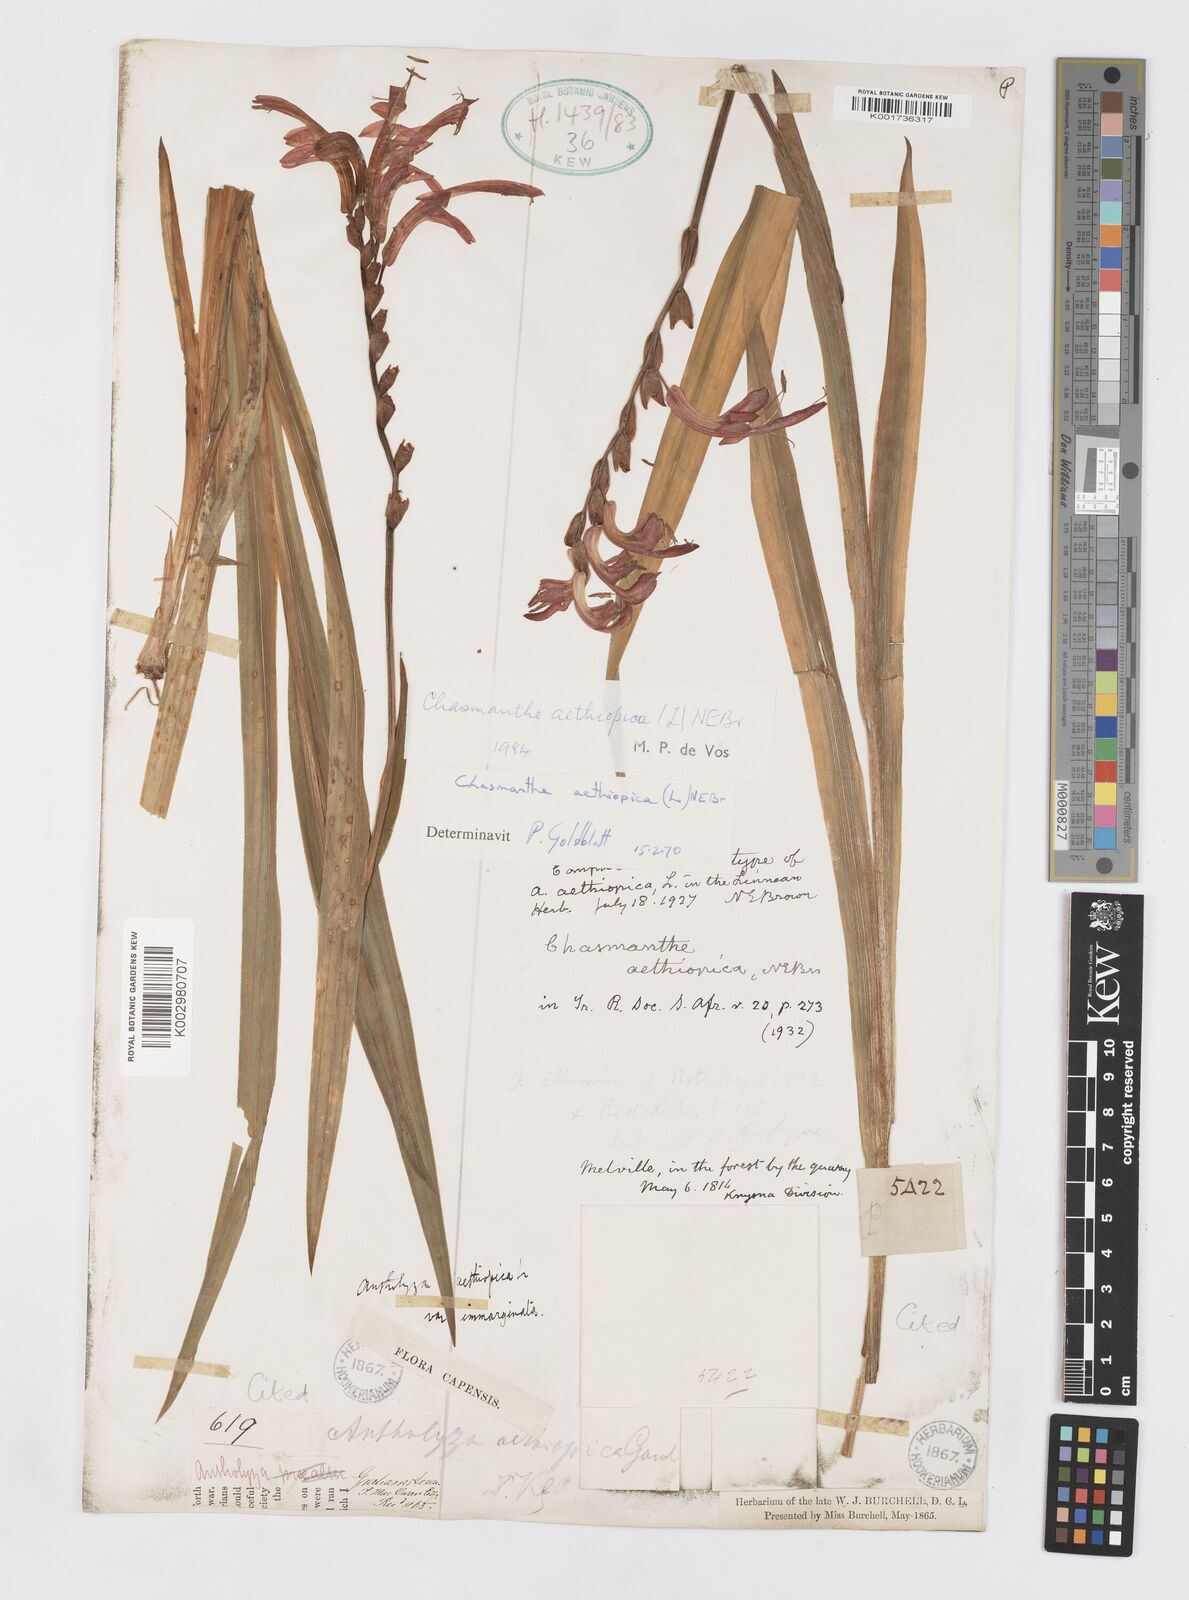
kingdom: Plantae
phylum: Tracheophyta
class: Liliopsida
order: Asparagales
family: Iridaceae
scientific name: Iridaceae
